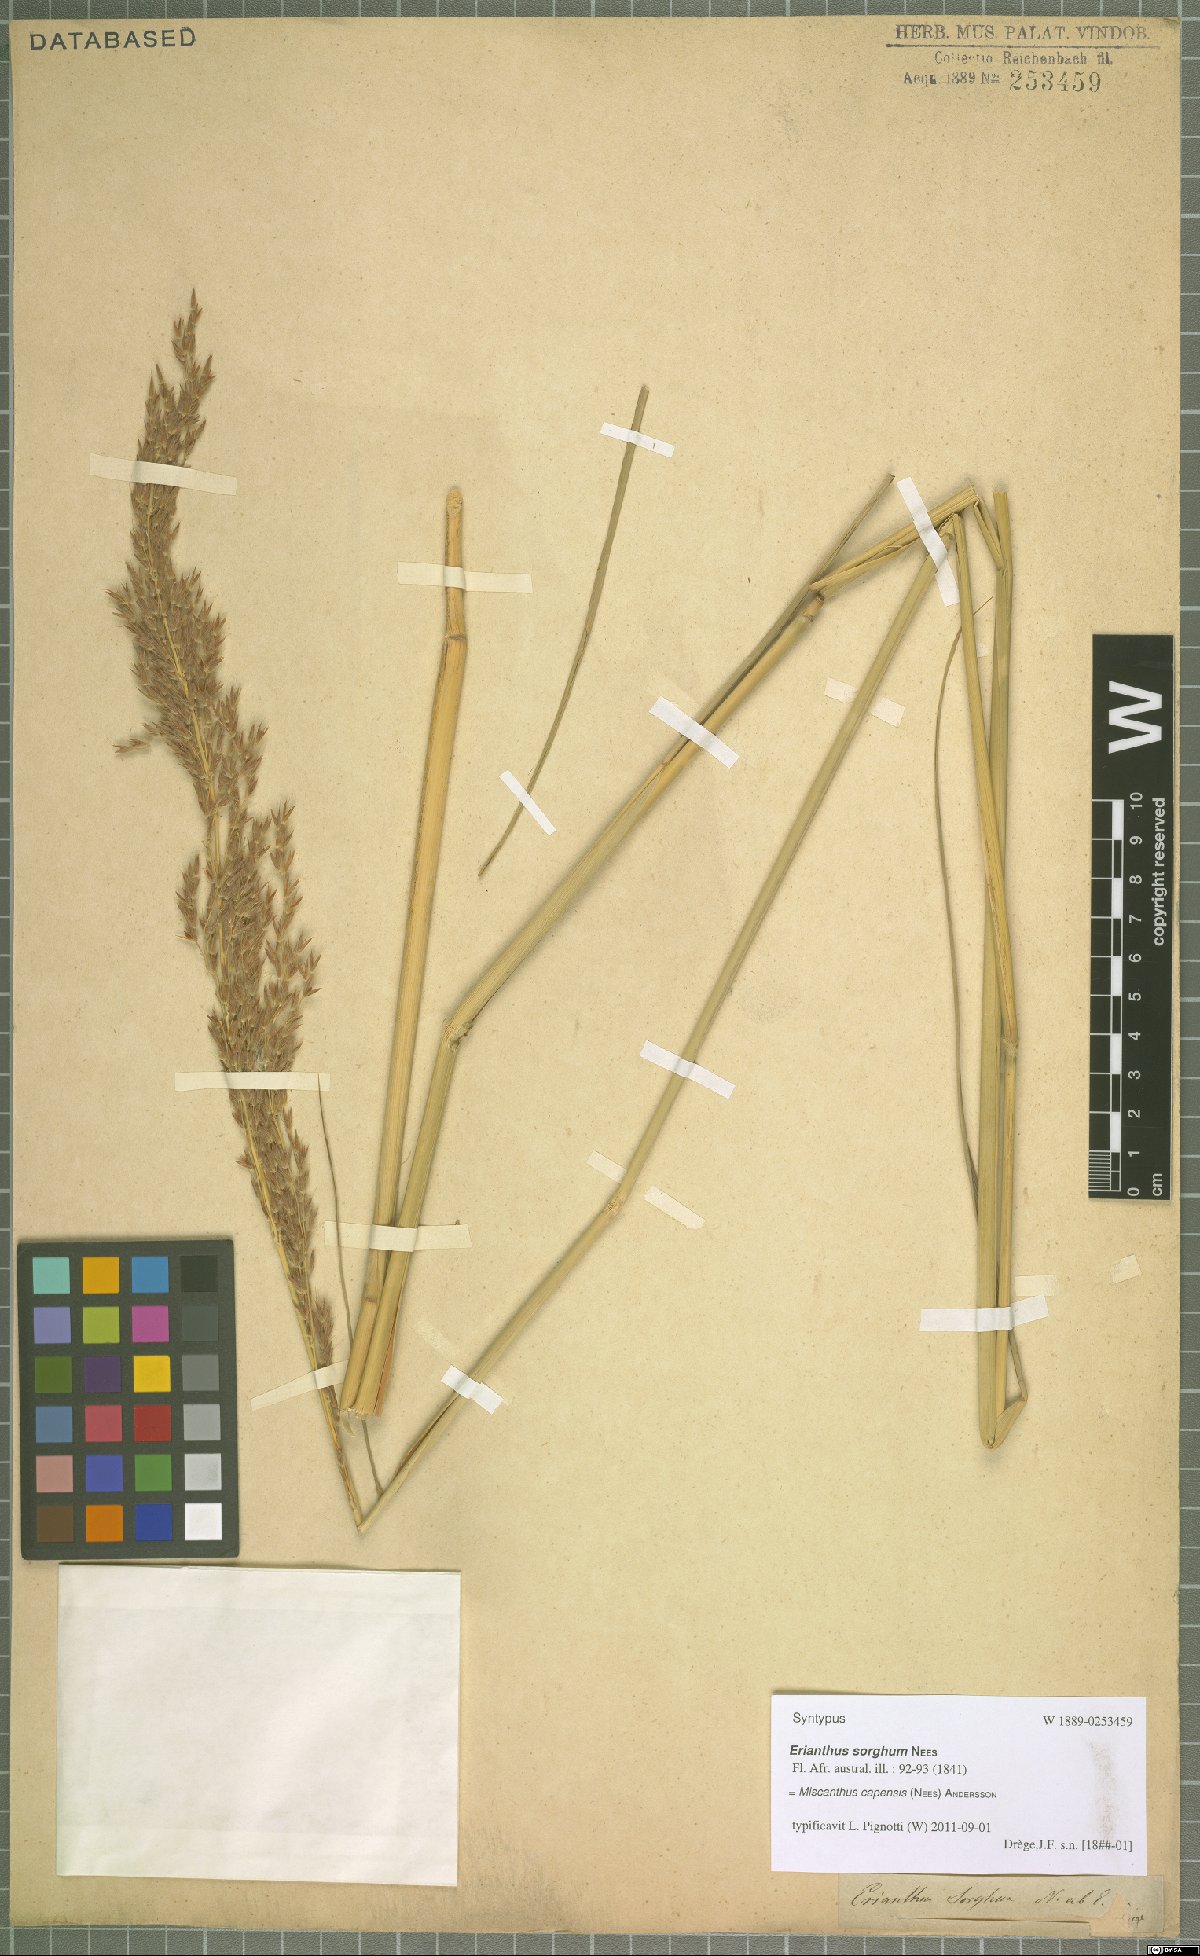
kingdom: Plantae
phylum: Tracheophyta
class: Liliopsida
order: Poales
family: Poaceae
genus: Miscanthus
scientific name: Miscanthus ecklonii
